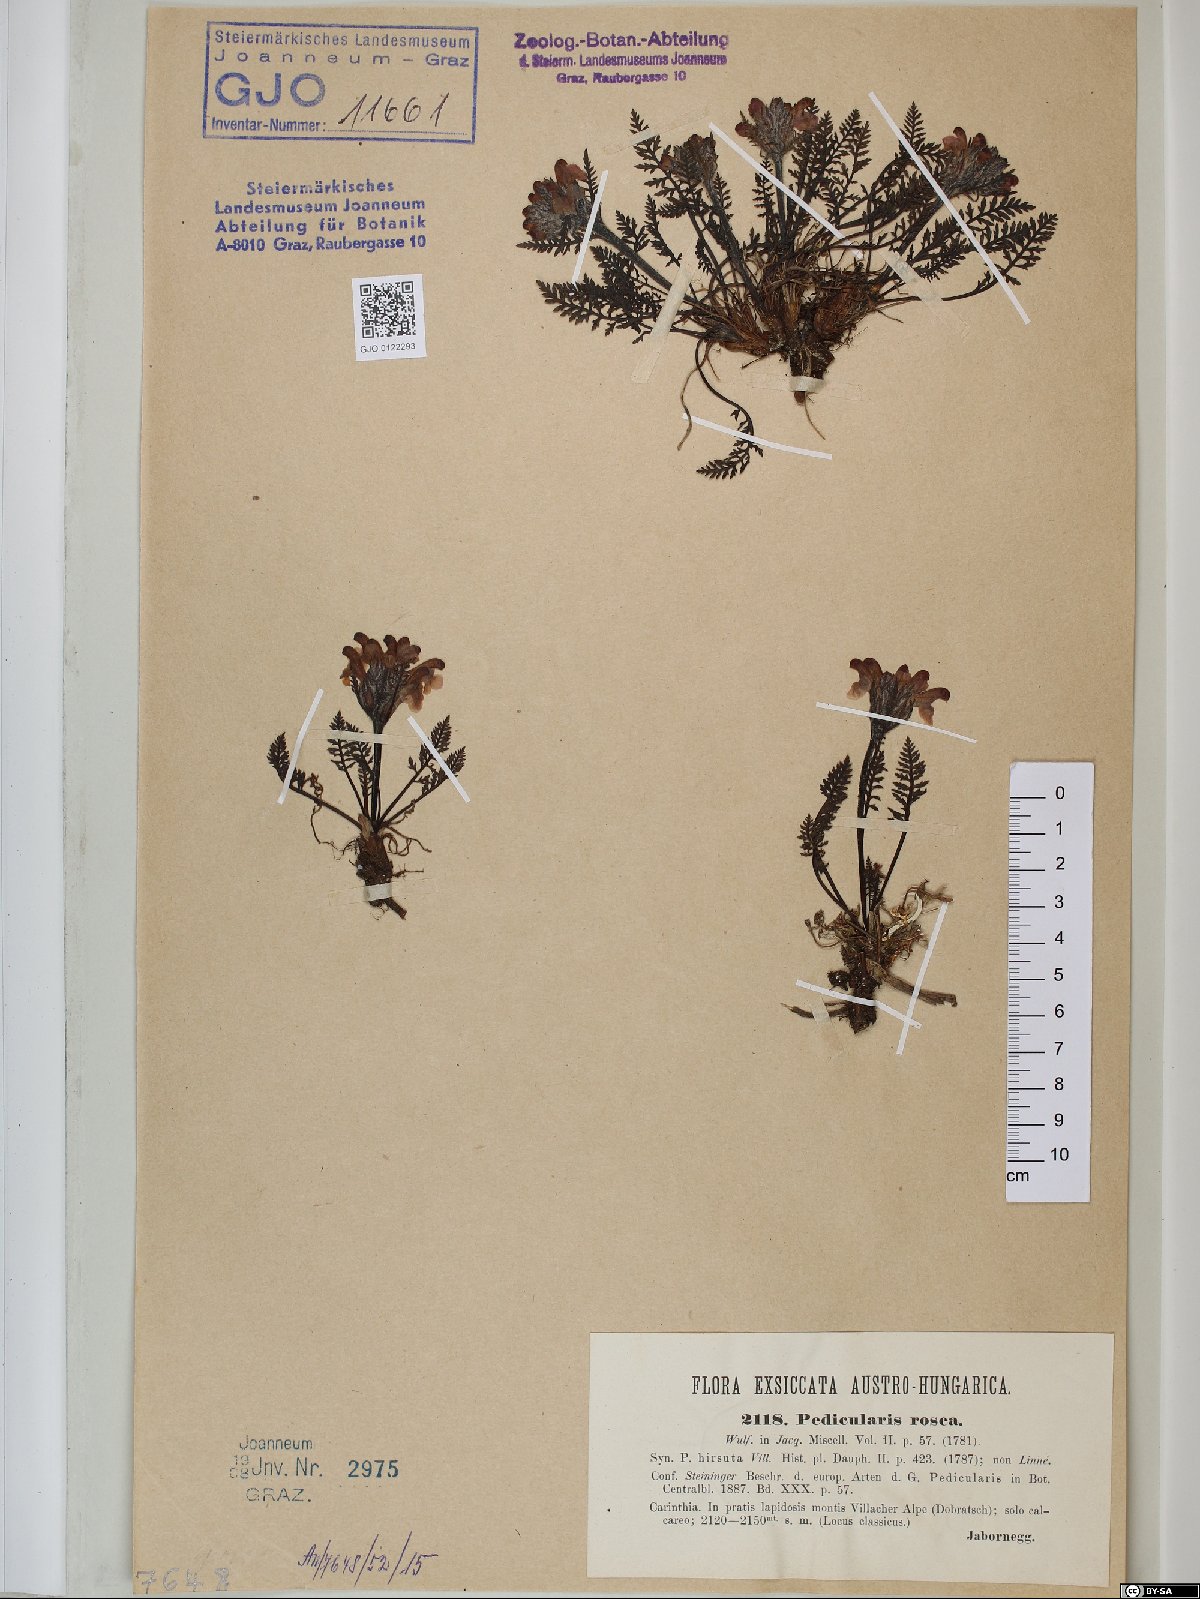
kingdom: Plantae
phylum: Tracheophyta
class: Magnoliopsida
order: Lamiales
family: Orobanchaceae
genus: Pedicularis
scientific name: Pedicularis rosea
